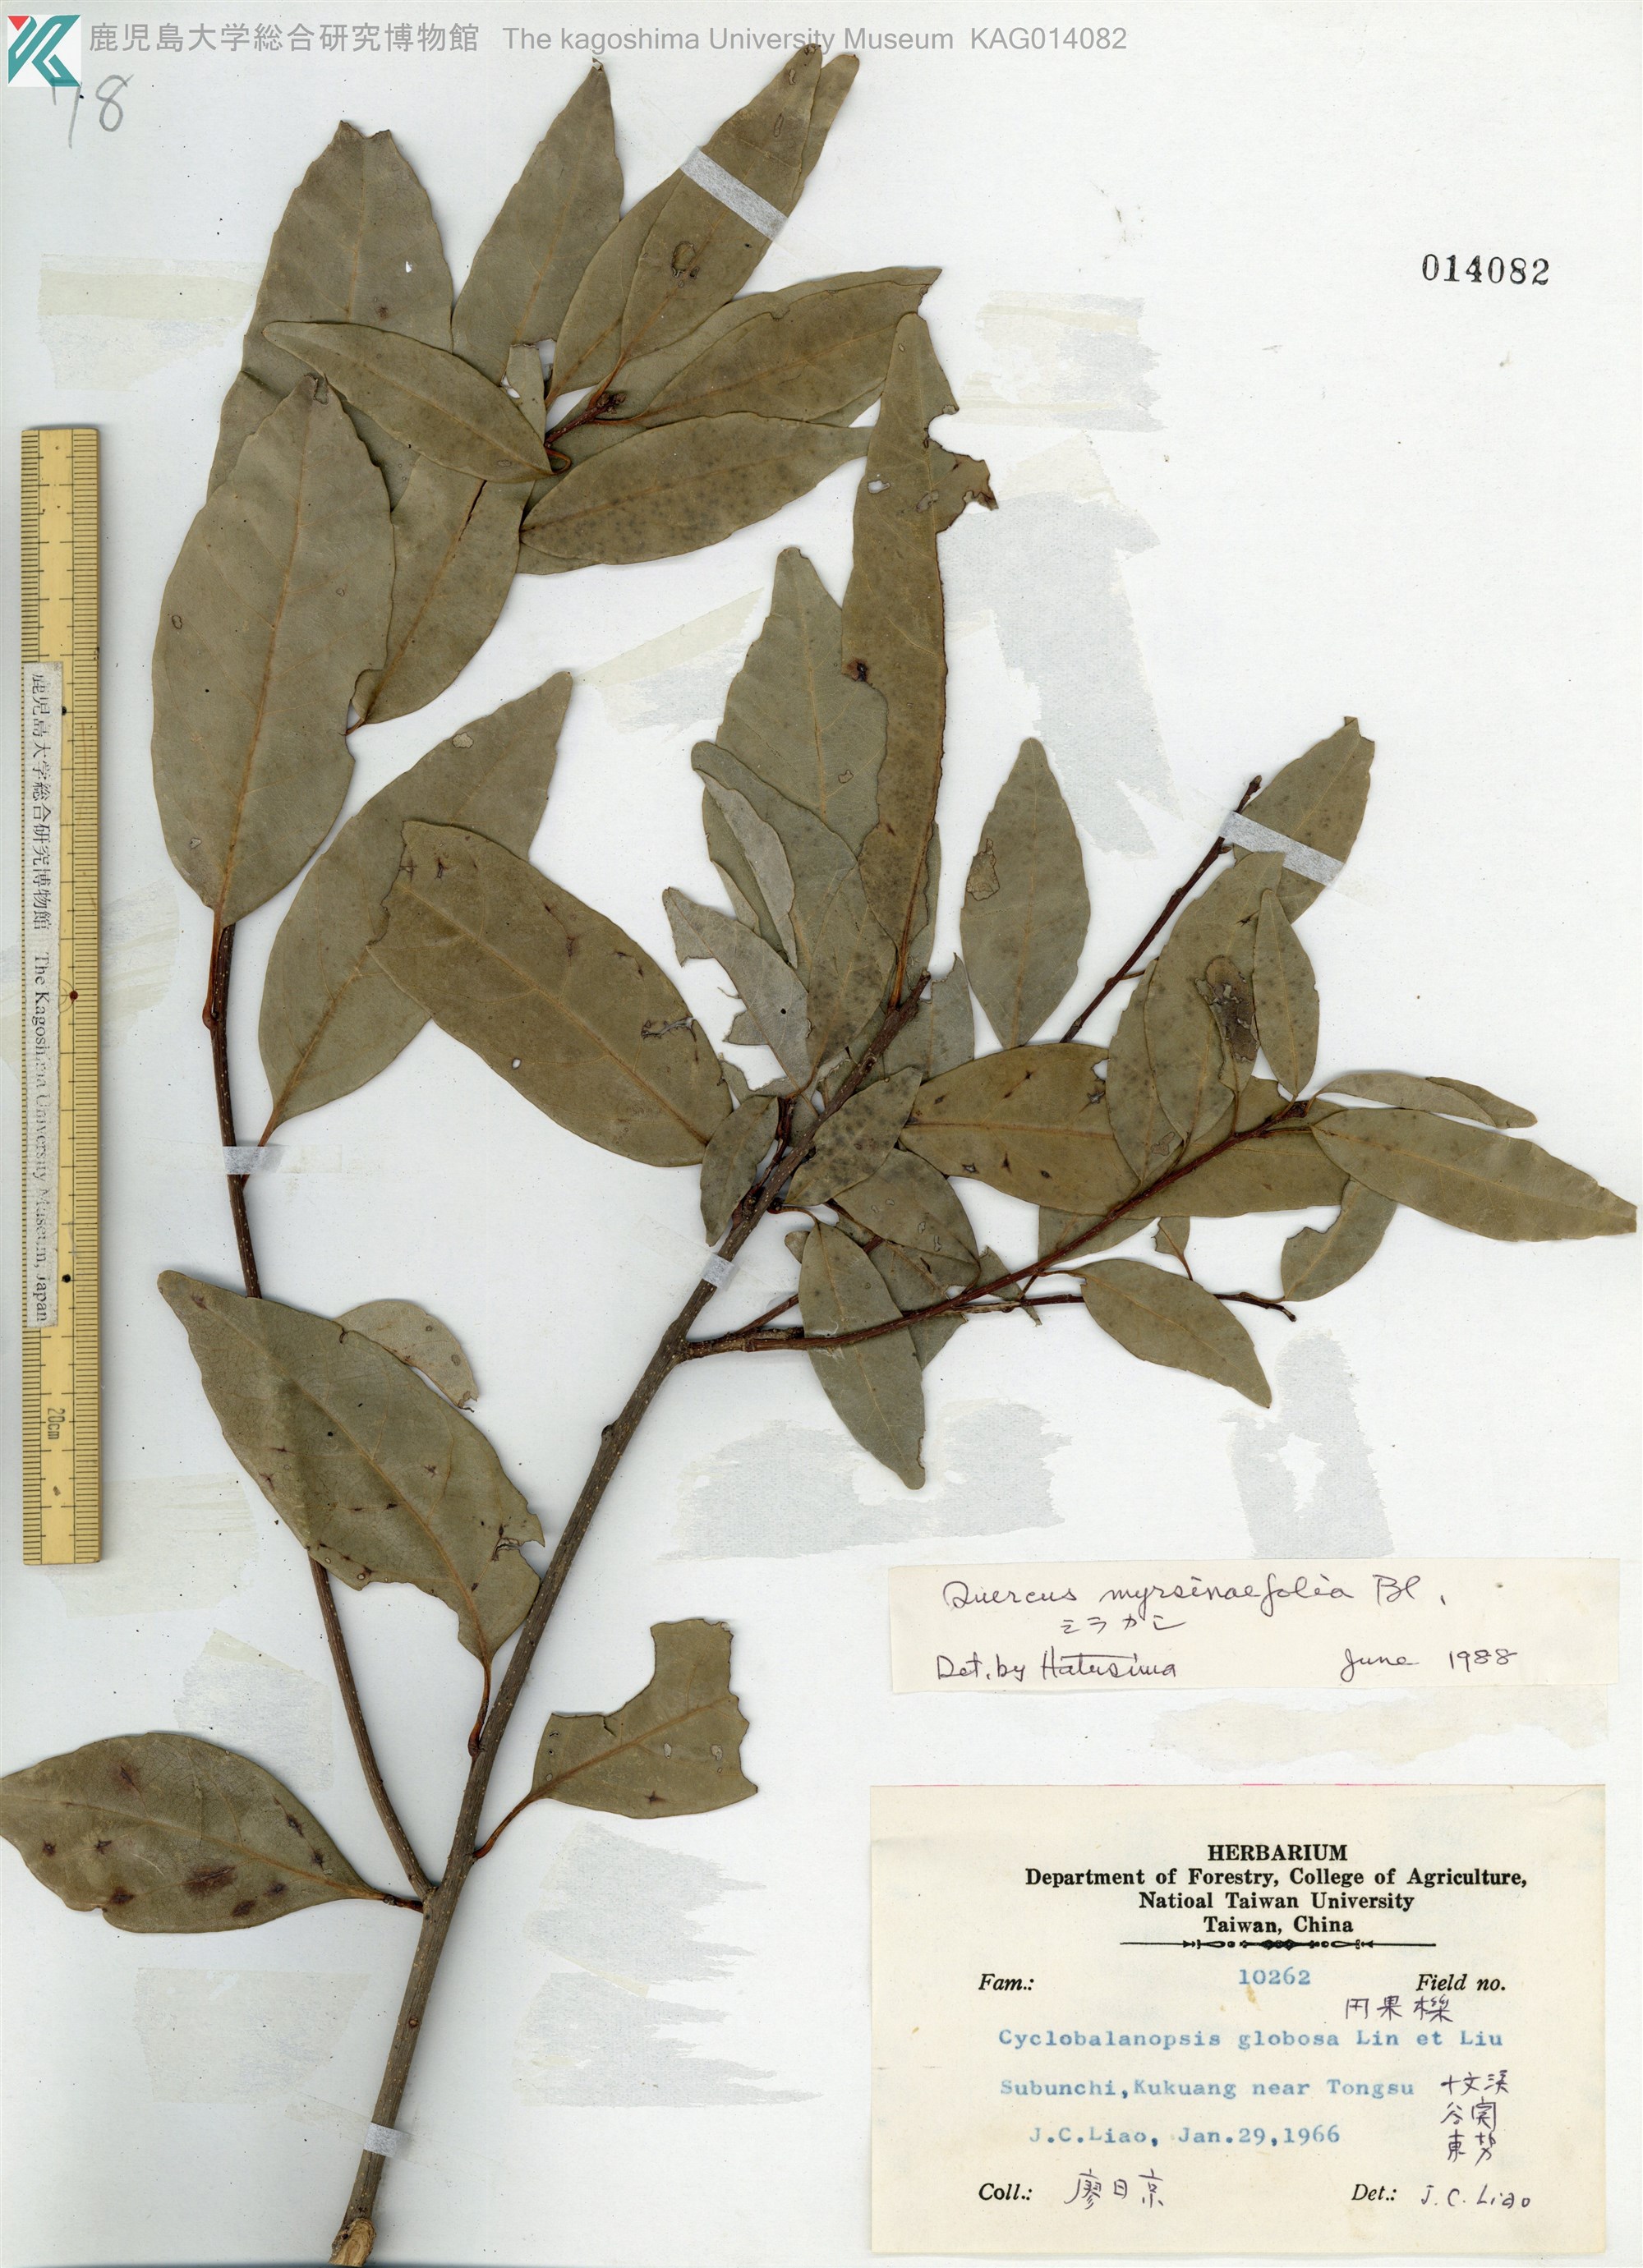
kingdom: Plantae
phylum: Tracheophyta
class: Magnoliopsida
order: Fagales
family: Fagaceae
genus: Quercus
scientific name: Quercus myrsinaefolia
